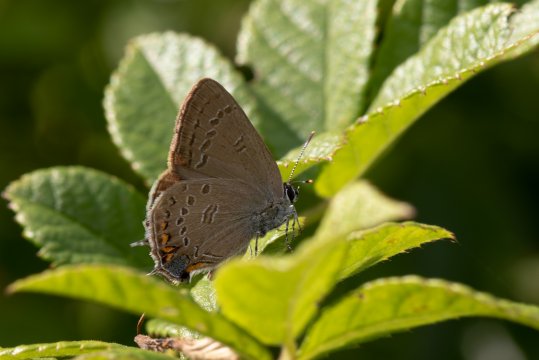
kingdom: Animalia
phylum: Arthropoda
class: Insecta
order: Lepidoptera
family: Lycaenidae
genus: Satyrium
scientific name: Satyrium edwardsii
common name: Edwards' Hairstreak
